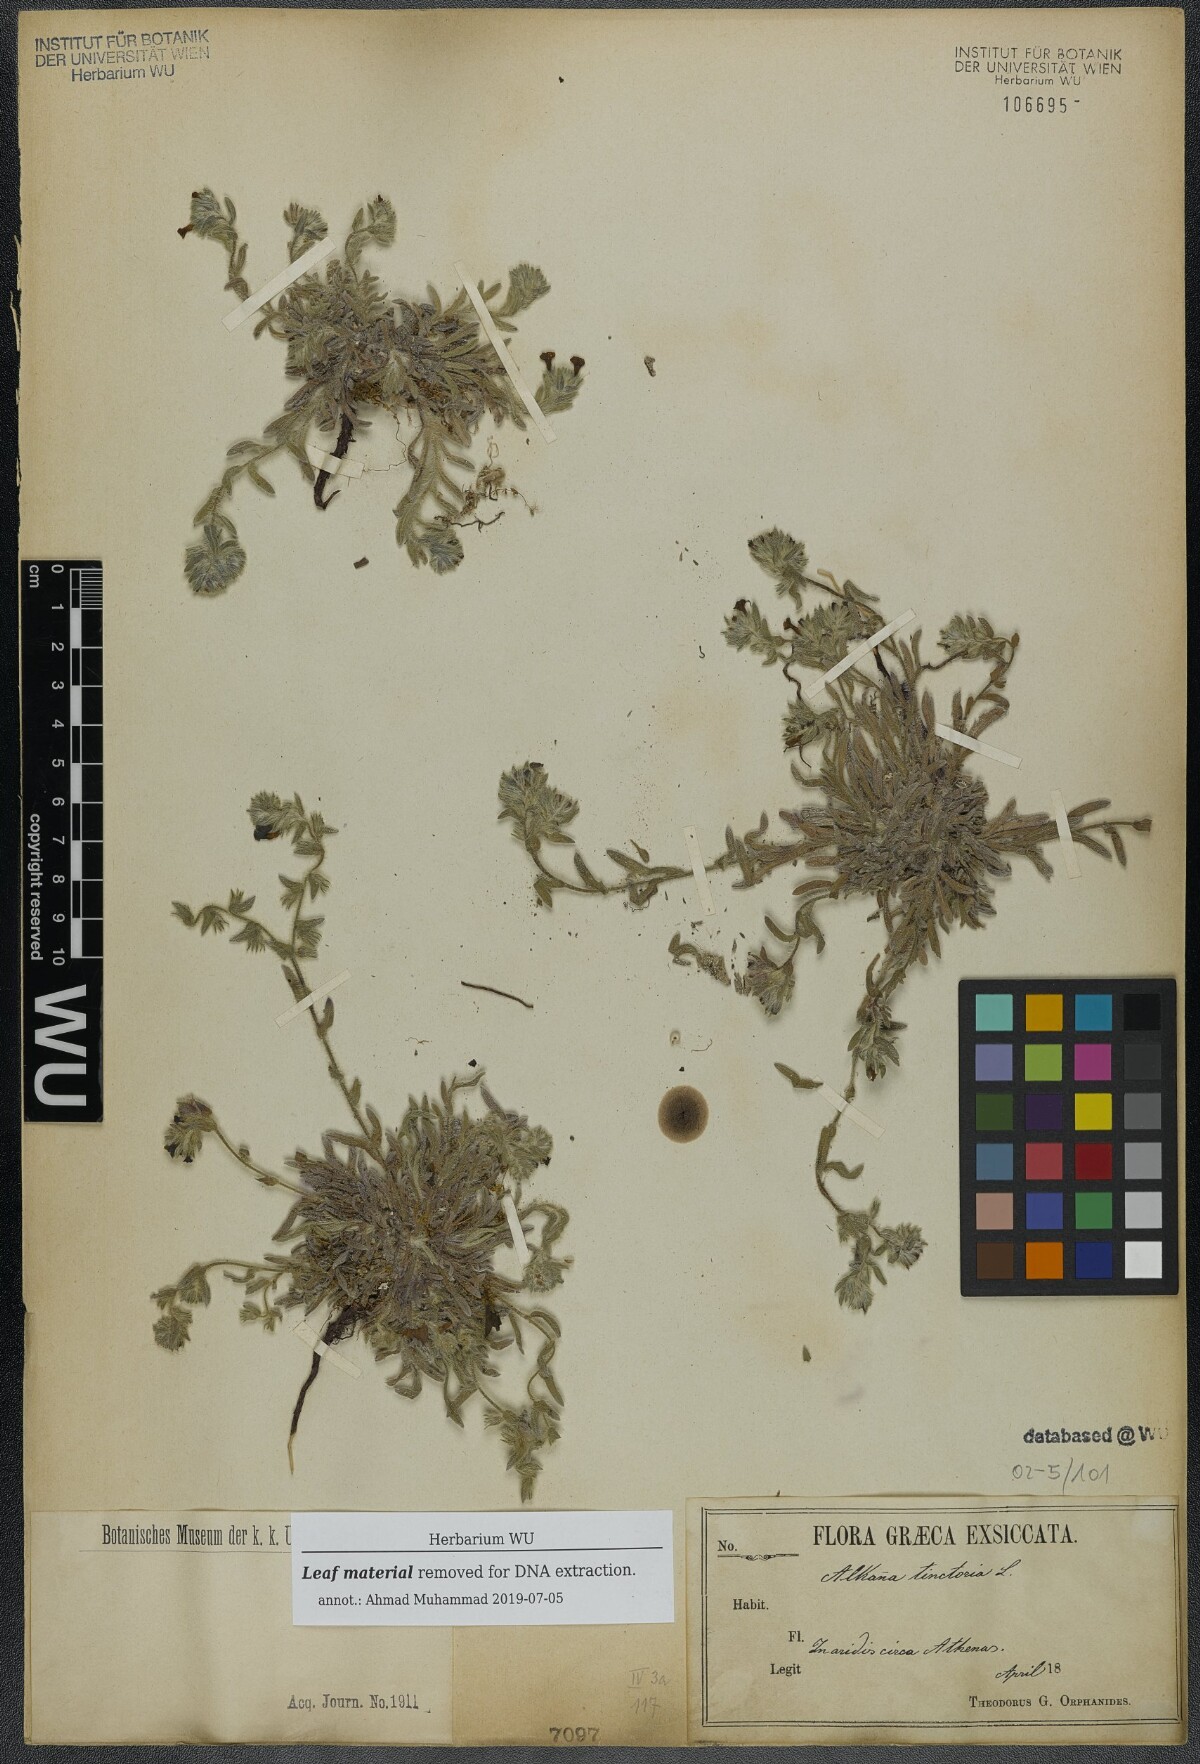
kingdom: Plantae
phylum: Tracheophyta
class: Magnoliopsida
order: Boraginales
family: Boraginaceae
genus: Alkanna
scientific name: Alkanna tinctoria
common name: Dyer's-alkanet
